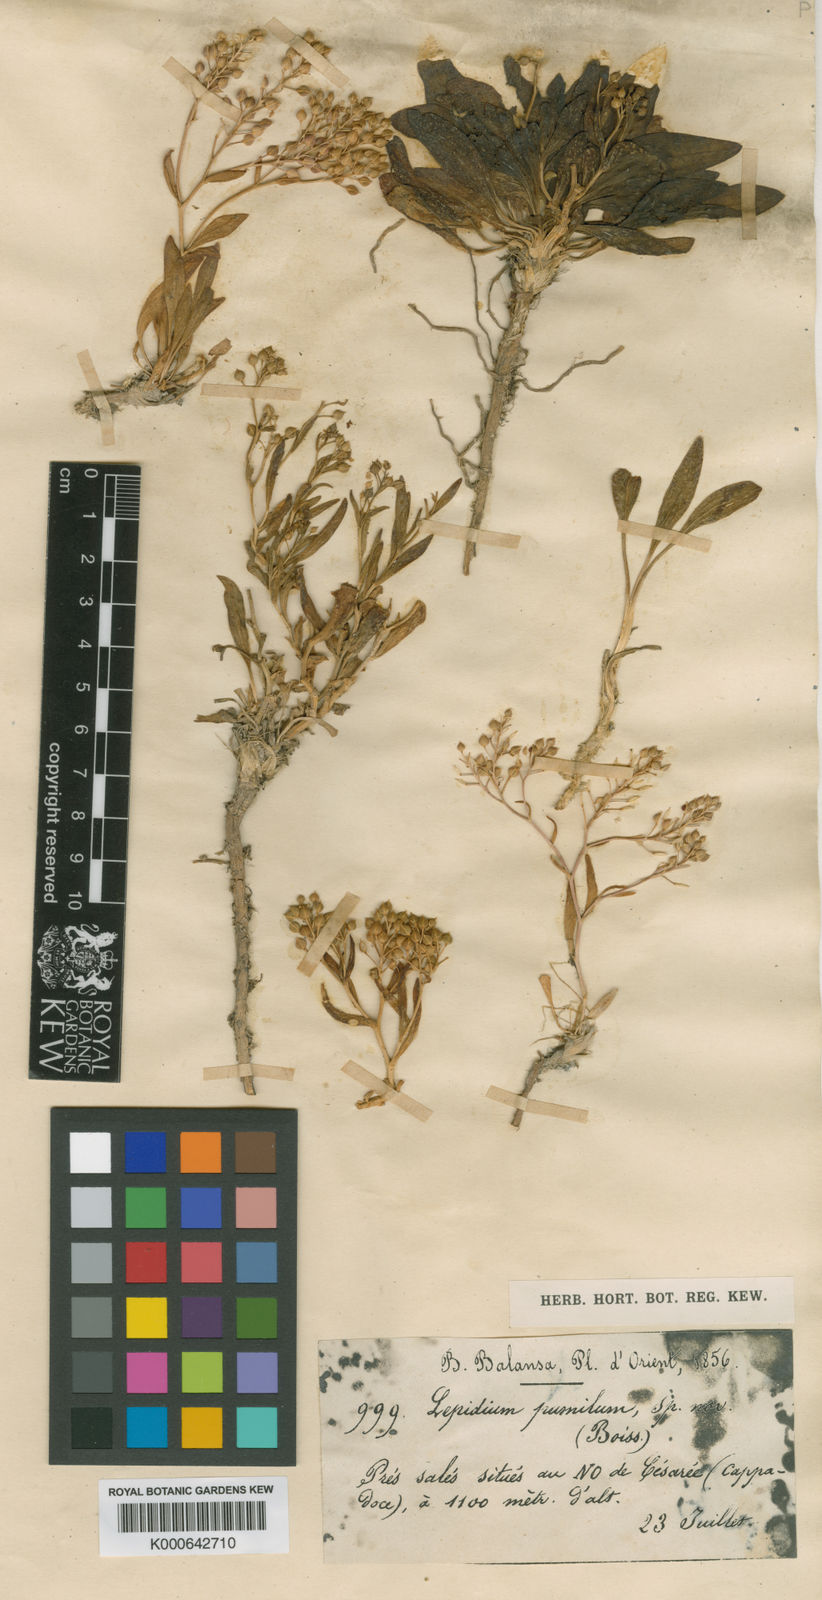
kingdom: Plantae
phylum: Tracheophyta
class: Magnoliopsida
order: Brassicales
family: Brassicaceae
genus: Lepidium
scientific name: Lepidium cartilagineum
